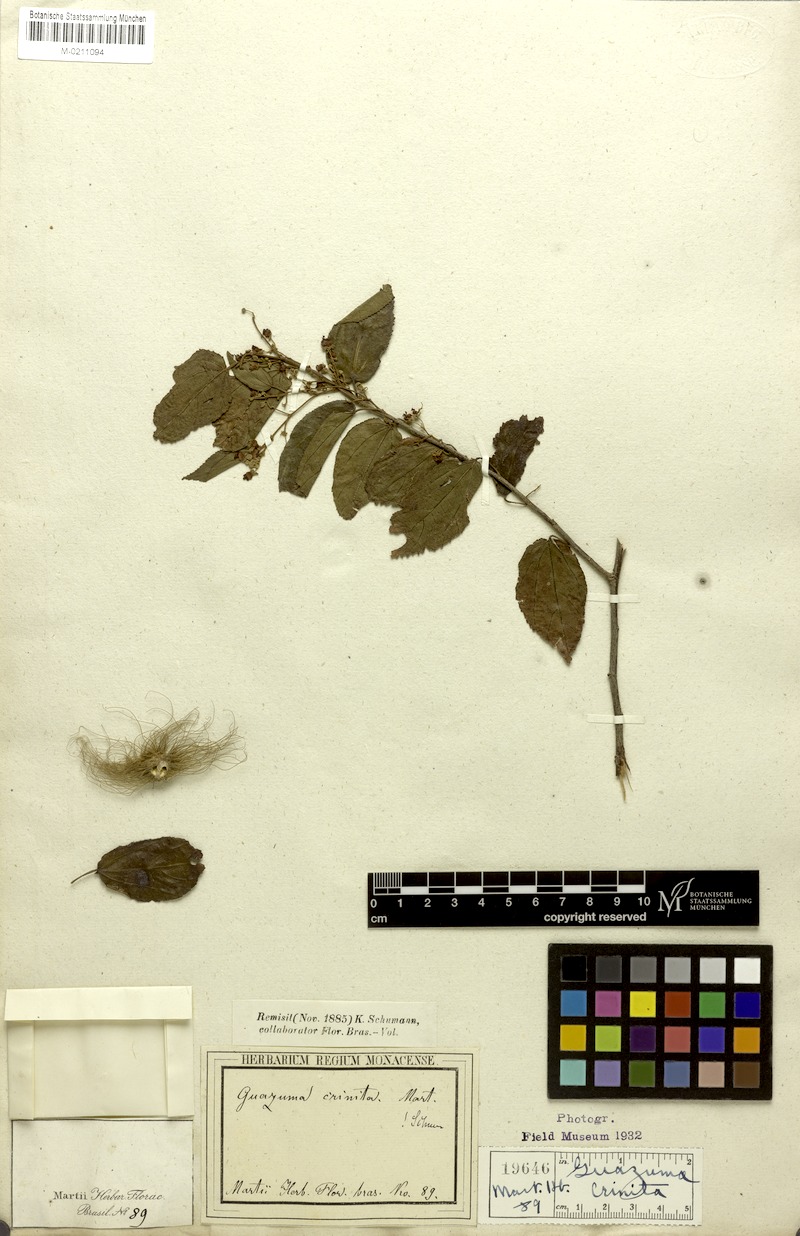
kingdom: Plantae
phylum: Tracheophyta
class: Magnoliopsida
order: Malvales
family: Malvaceae
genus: Guazuma
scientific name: Guazuma crinita
